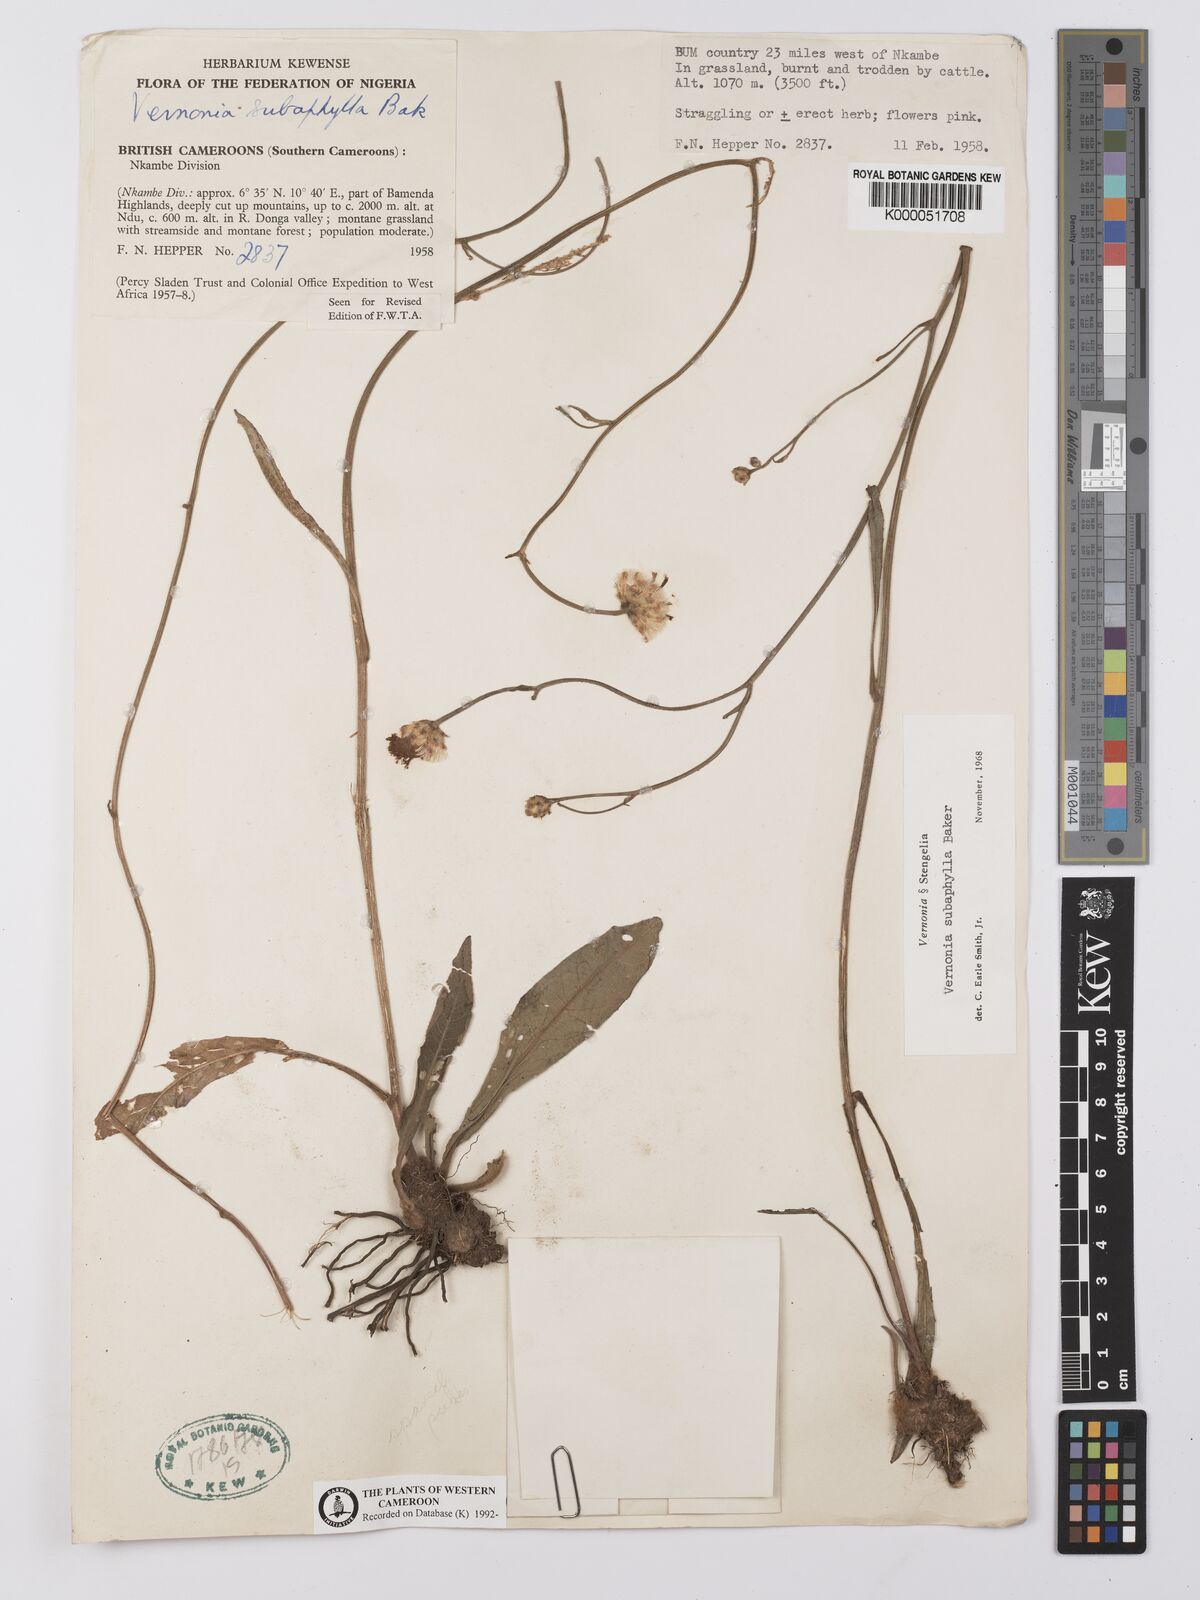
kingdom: Plantae
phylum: Tracheophyta
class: Magnoliopsida
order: Asterales
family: Asteraceae
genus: Vernonella
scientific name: Vernonella subaphylla
